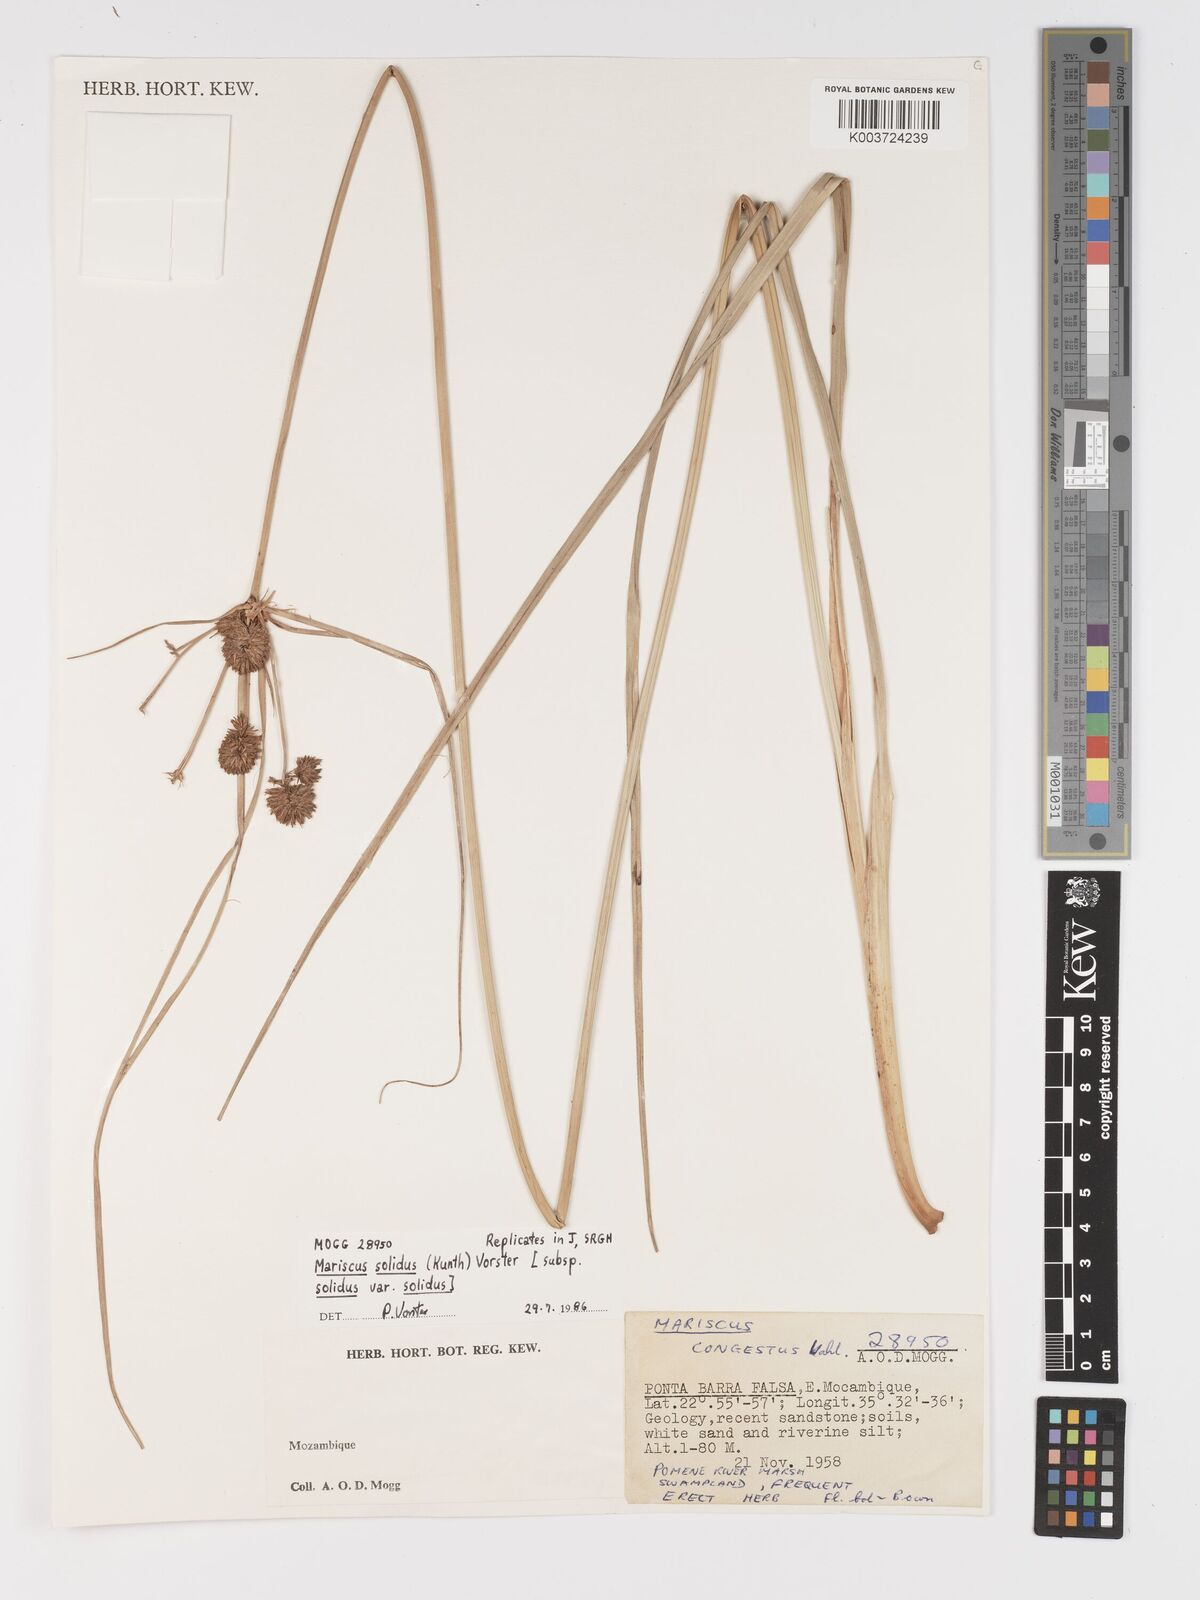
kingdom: Plantae
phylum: Tracheophyta
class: Liliopsida
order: Poales
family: Cyperaceae
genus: Cyperus
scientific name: Cyperus solidus
